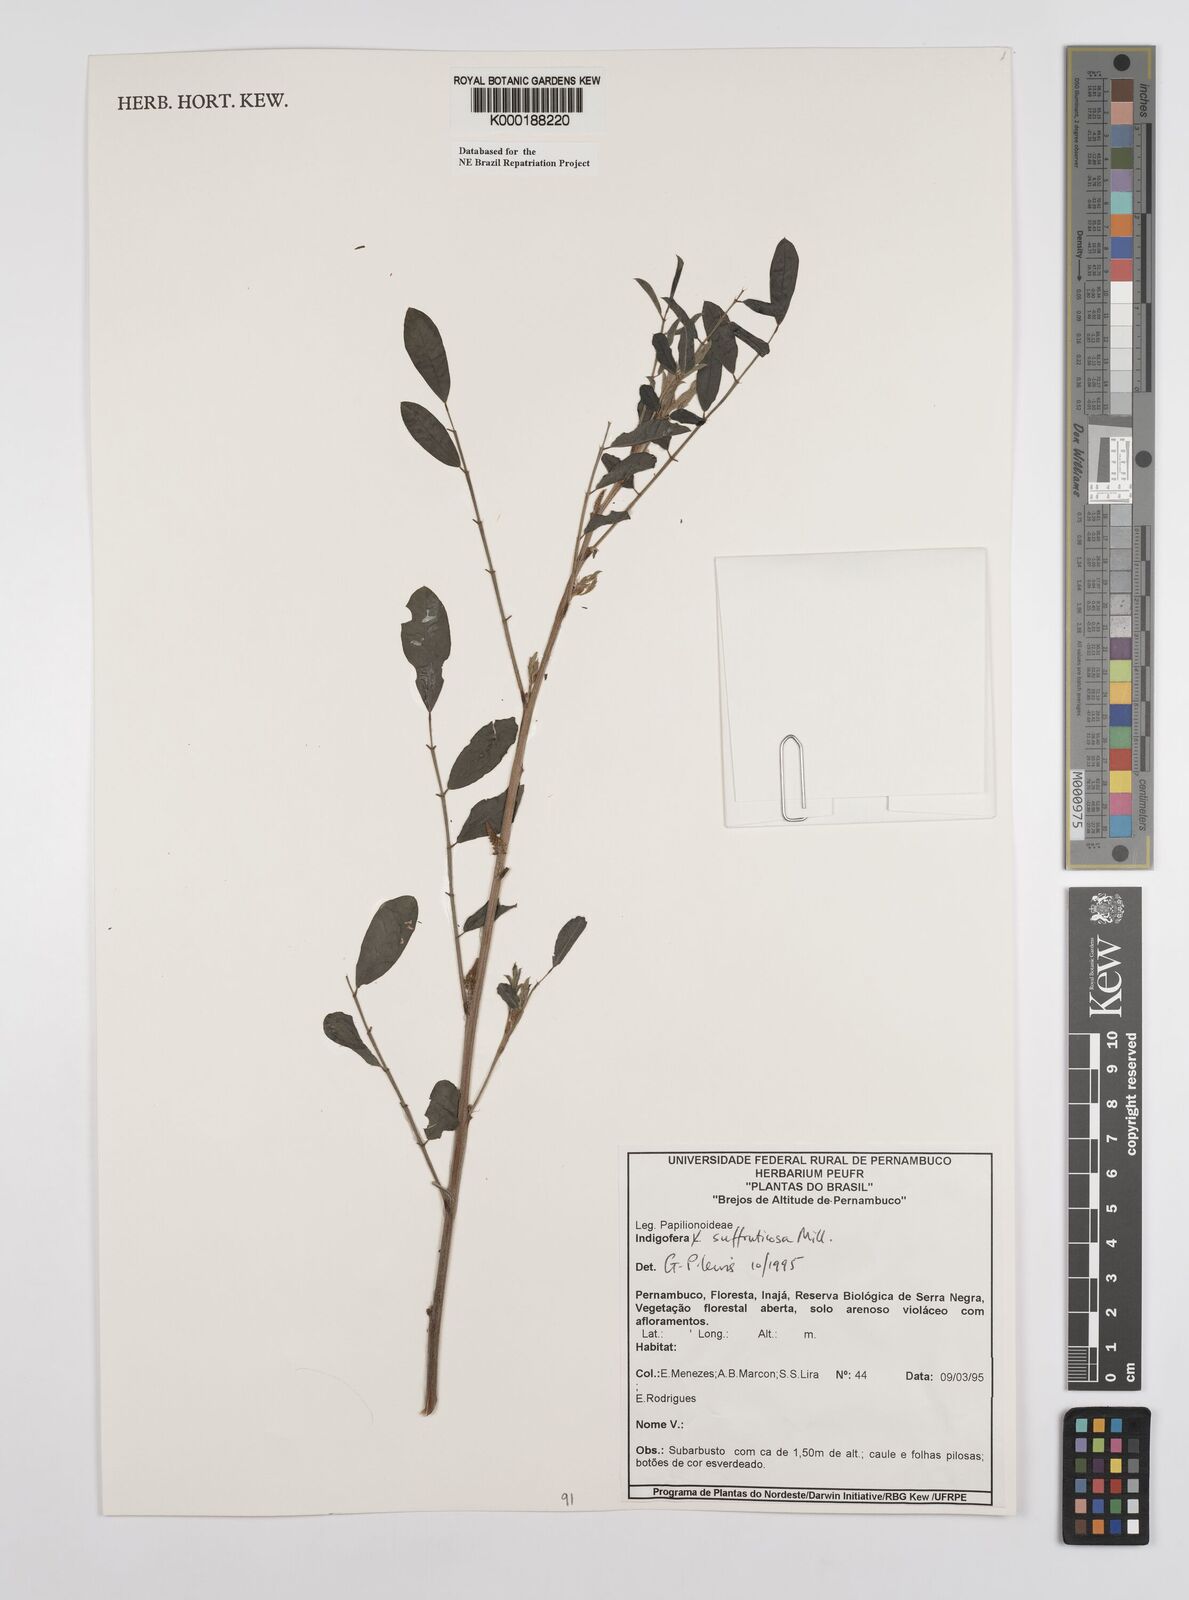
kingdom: Plantae
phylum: Tracheophyta
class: Magnoliopsida
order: Fabales
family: Fabaceae
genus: Indigofera
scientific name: Indigofera suffruticosa
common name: Anil de pasto
